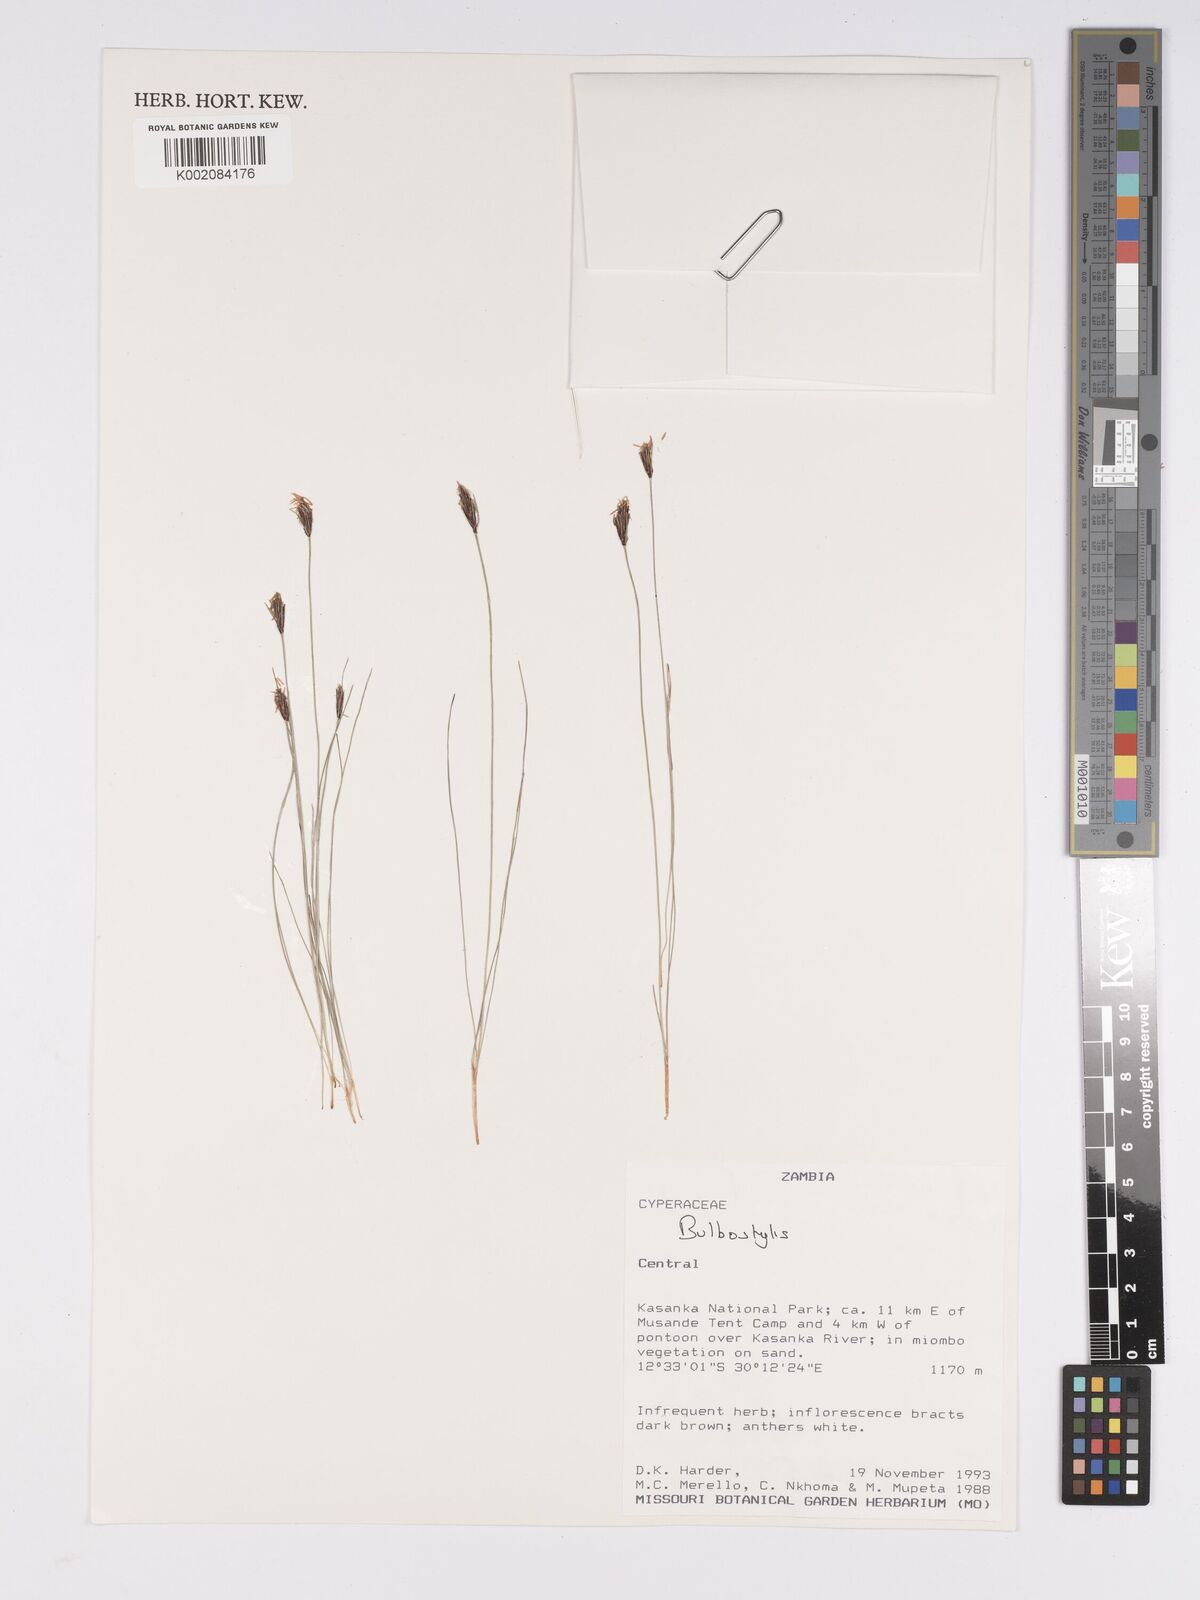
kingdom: Plantae
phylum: Tracheophyta
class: Liliopsida
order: Poales
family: Cyperaceae
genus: Bulbostylis
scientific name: Bulbostylis
